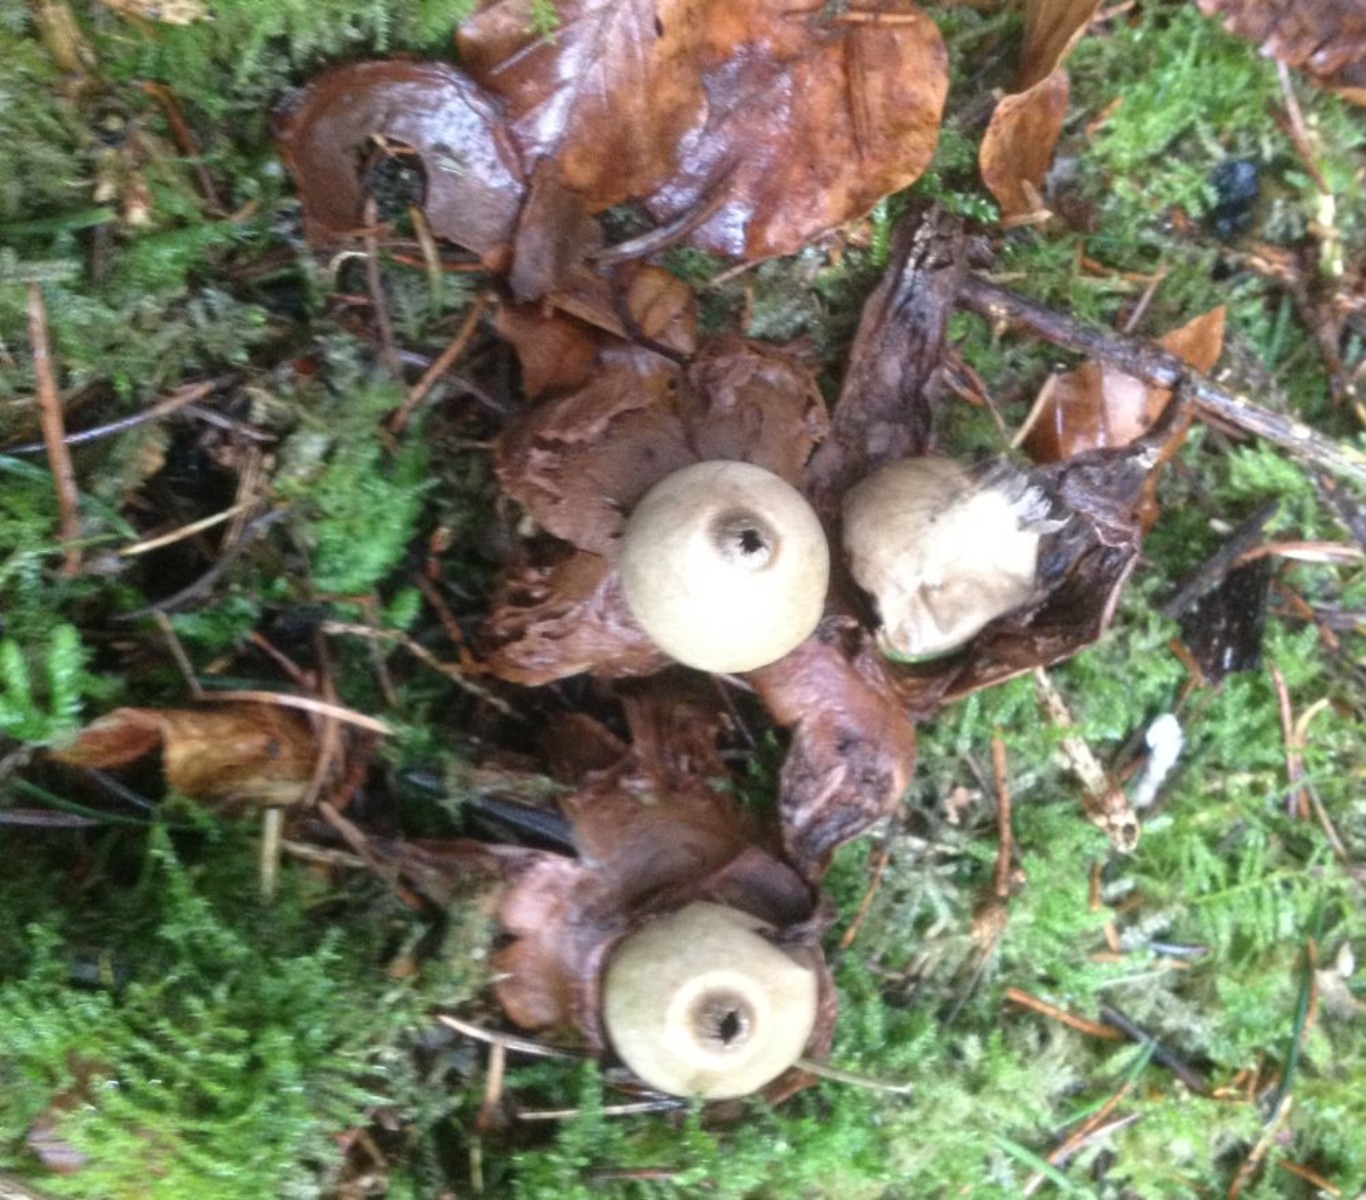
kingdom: Fungi
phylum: Basidiomycota
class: Agaricomycetes
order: Geastrales
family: Geastraceae
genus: Geastrum
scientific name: Geastrum michelianum
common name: kødet stjernebold
